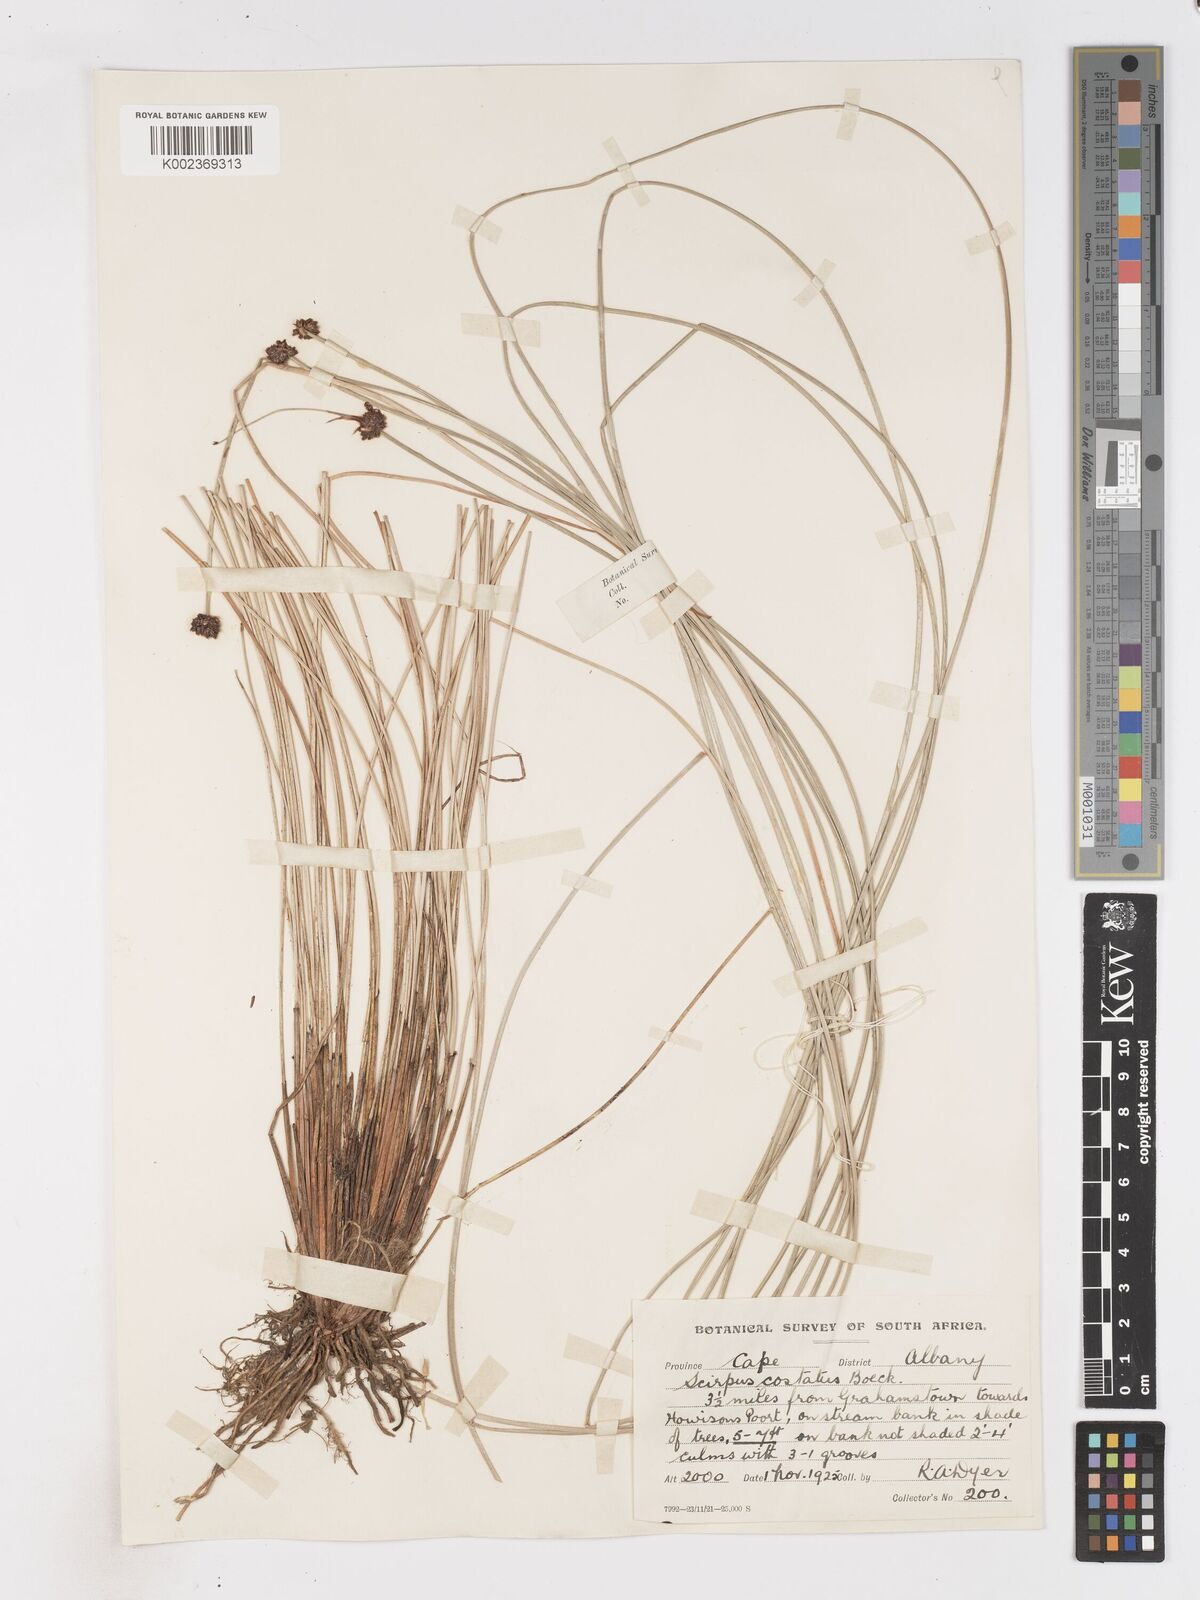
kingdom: Plantae
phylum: Tracheophyta
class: Liliopsida
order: Poales
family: Cyperaceae
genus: Isolepis
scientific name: Isolepis costata
